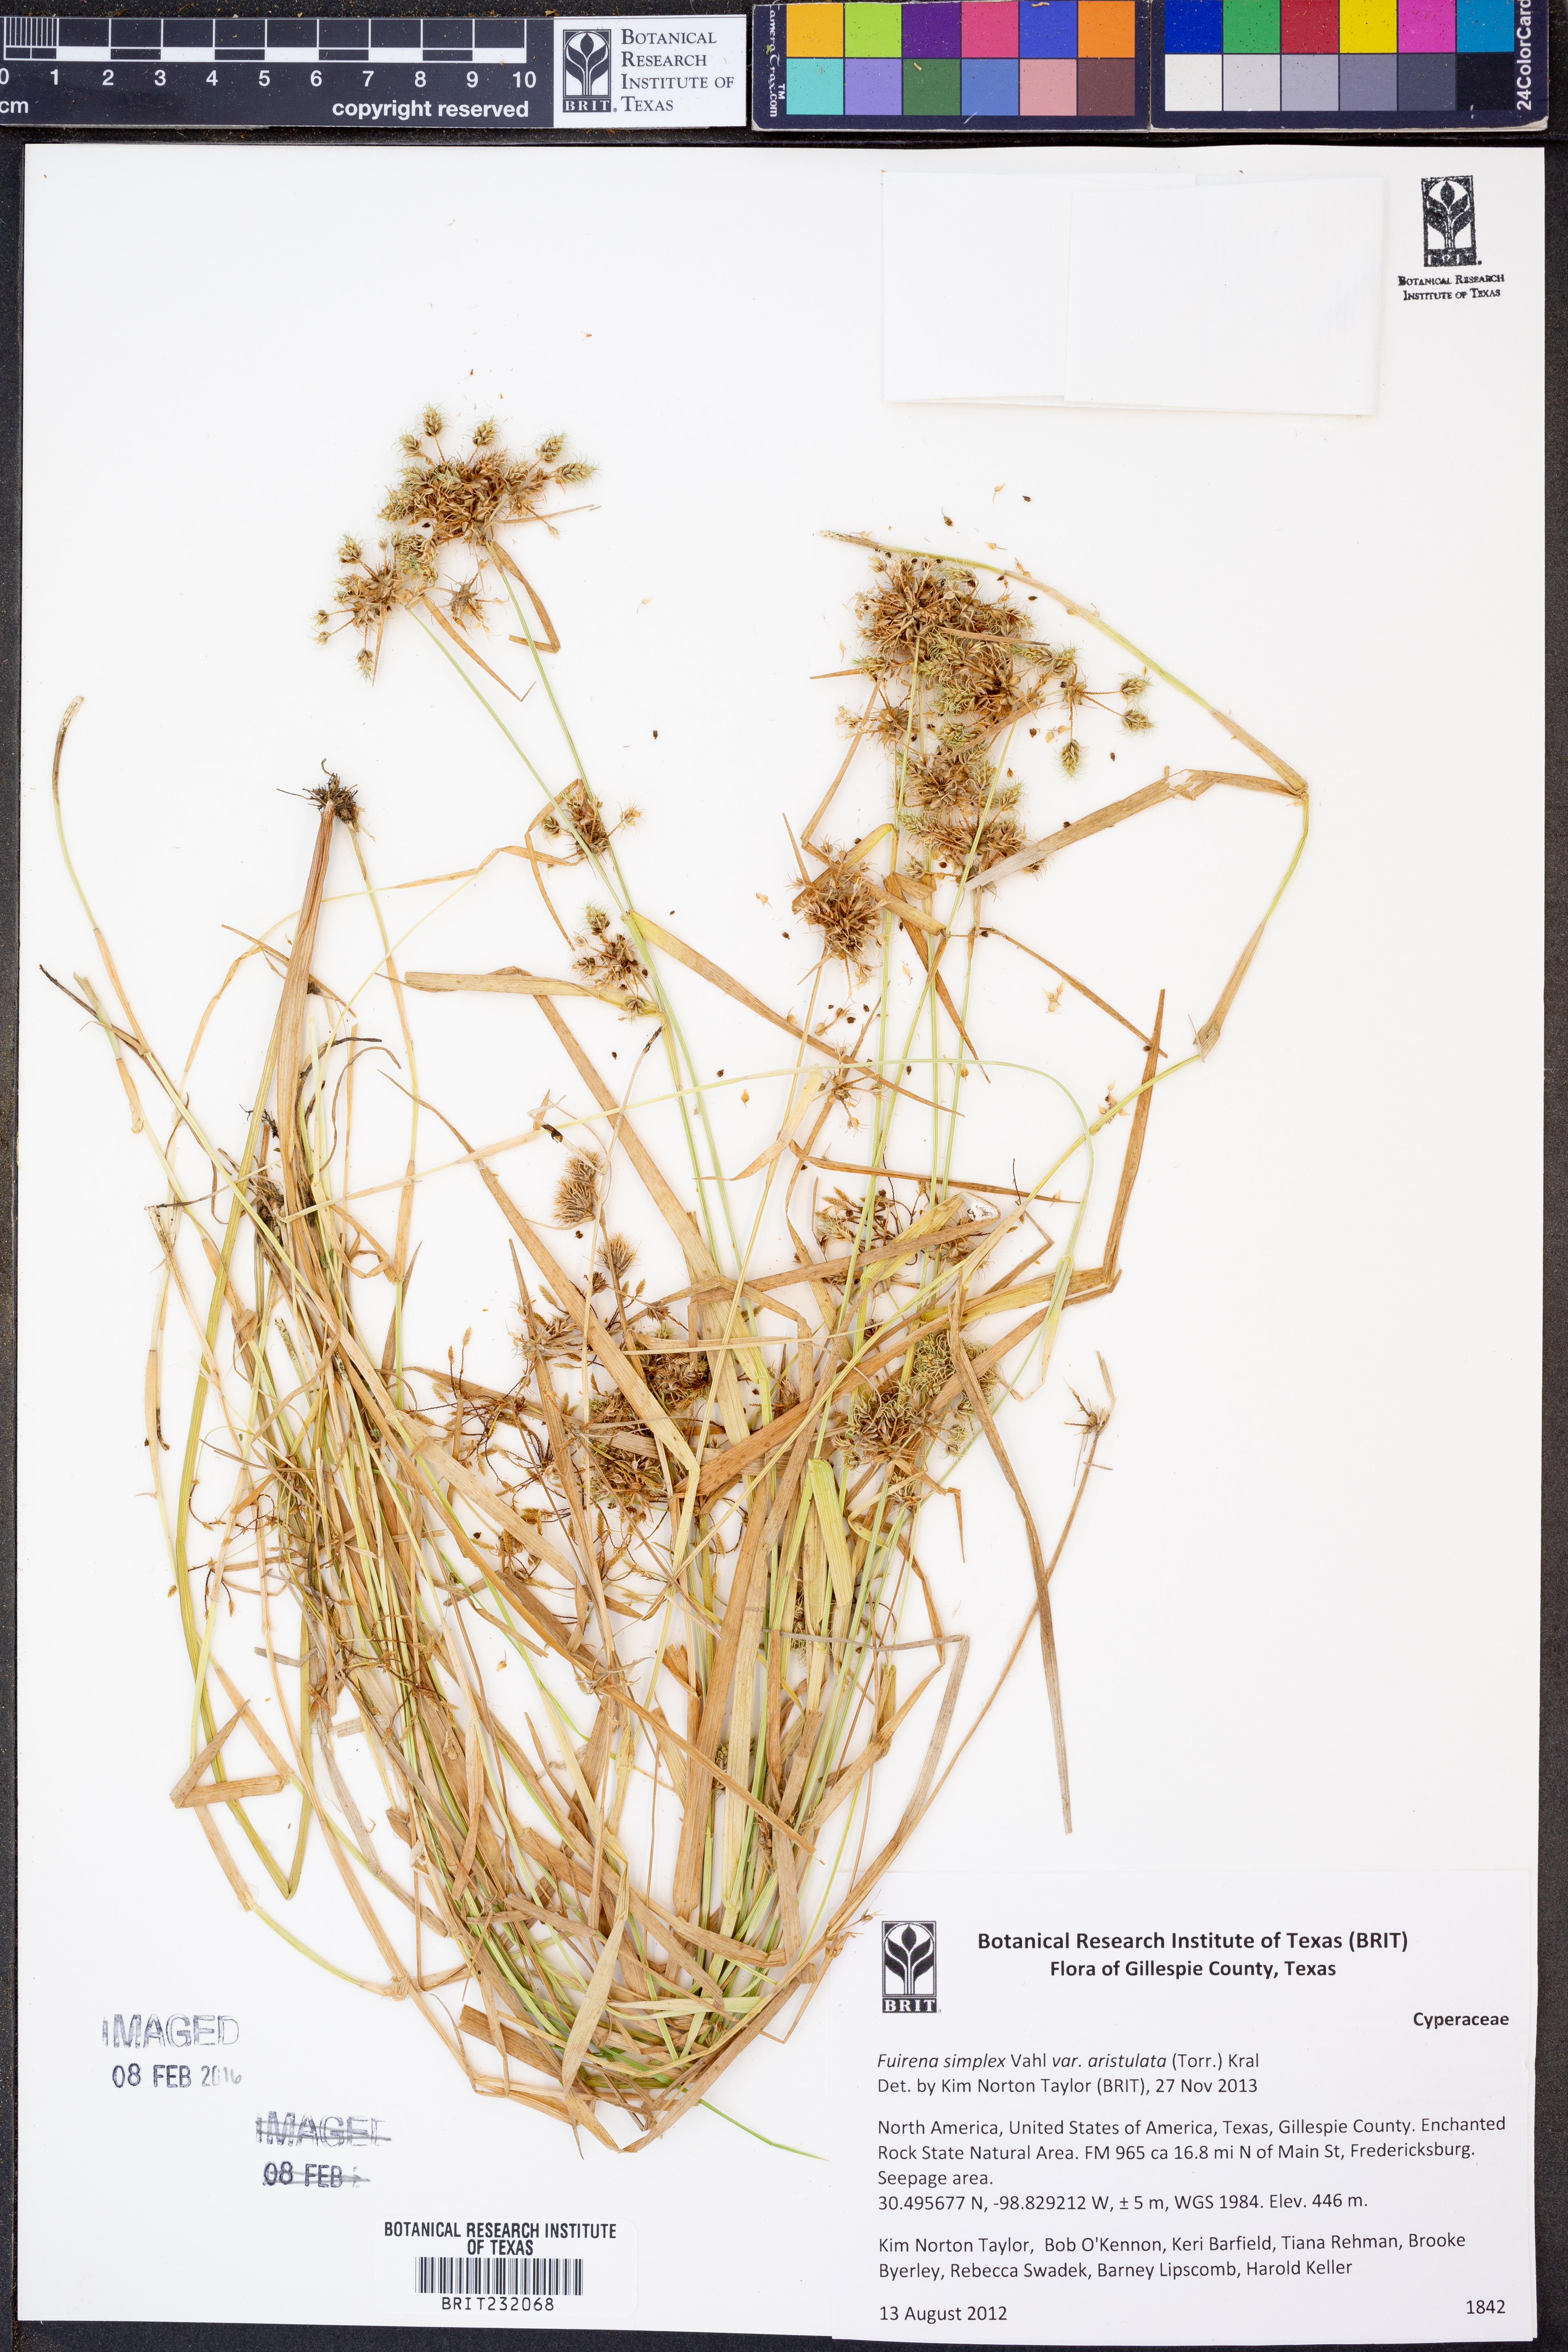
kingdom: Plantae
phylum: Tracheophyta
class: Liliopsida
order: Poales
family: Cyperaceae
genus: Fuirena
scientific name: Fuirena simplex
